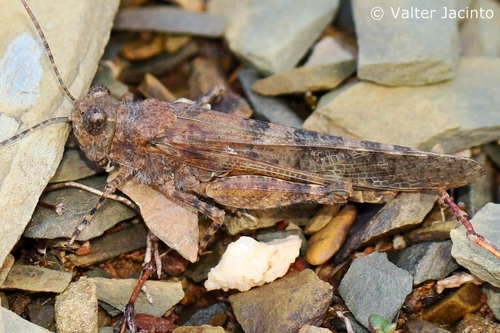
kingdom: Animalia
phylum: Arthropoda
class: Insecta
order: Orthoptera
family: Acrididae
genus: Sphingonotus
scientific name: Sphingonotus rubescens
